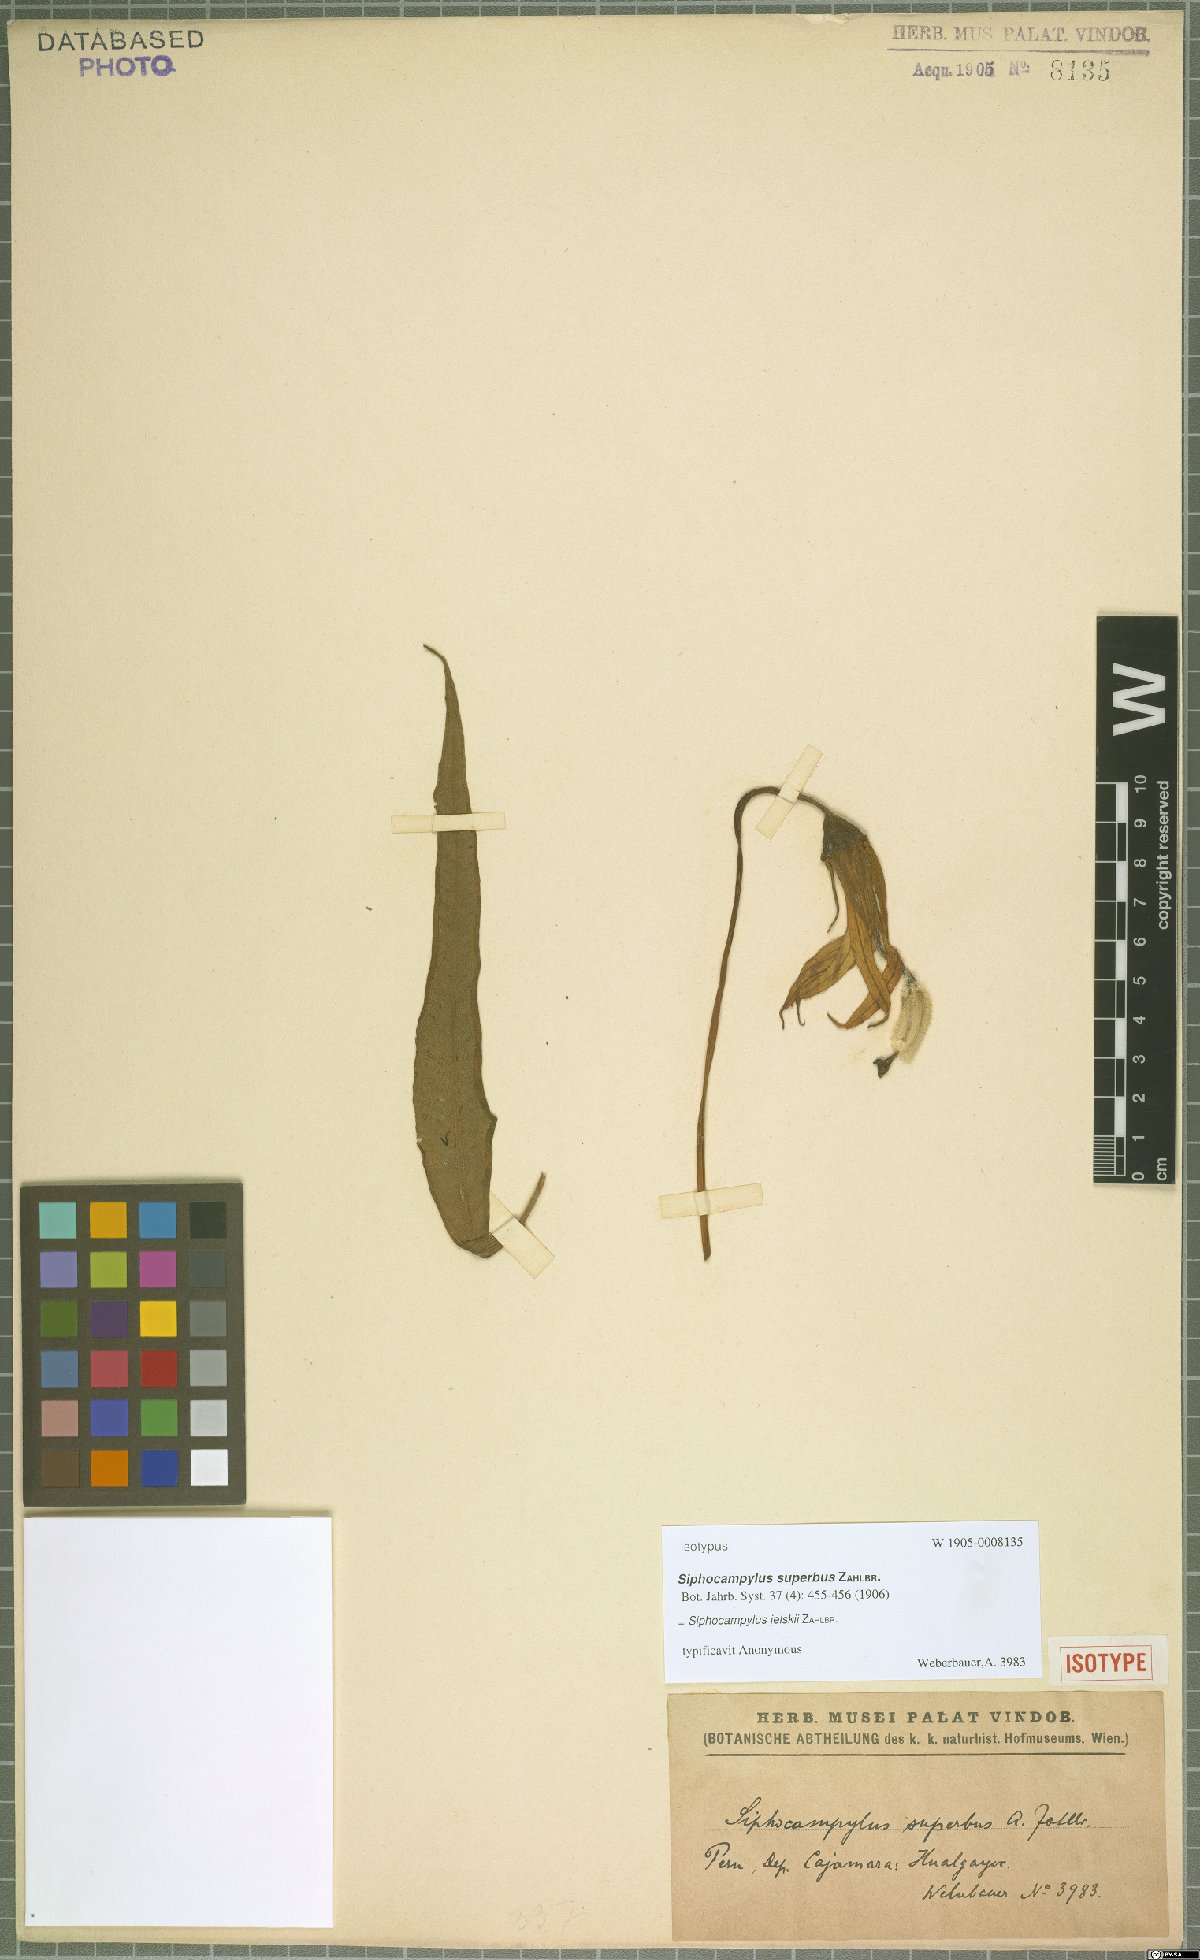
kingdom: Plantae
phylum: Tracheophyta
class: Magnoliopsida
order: Asterales
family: Campanulaceae
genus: Siphocampylus
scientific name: Siphocampylus jelskii
